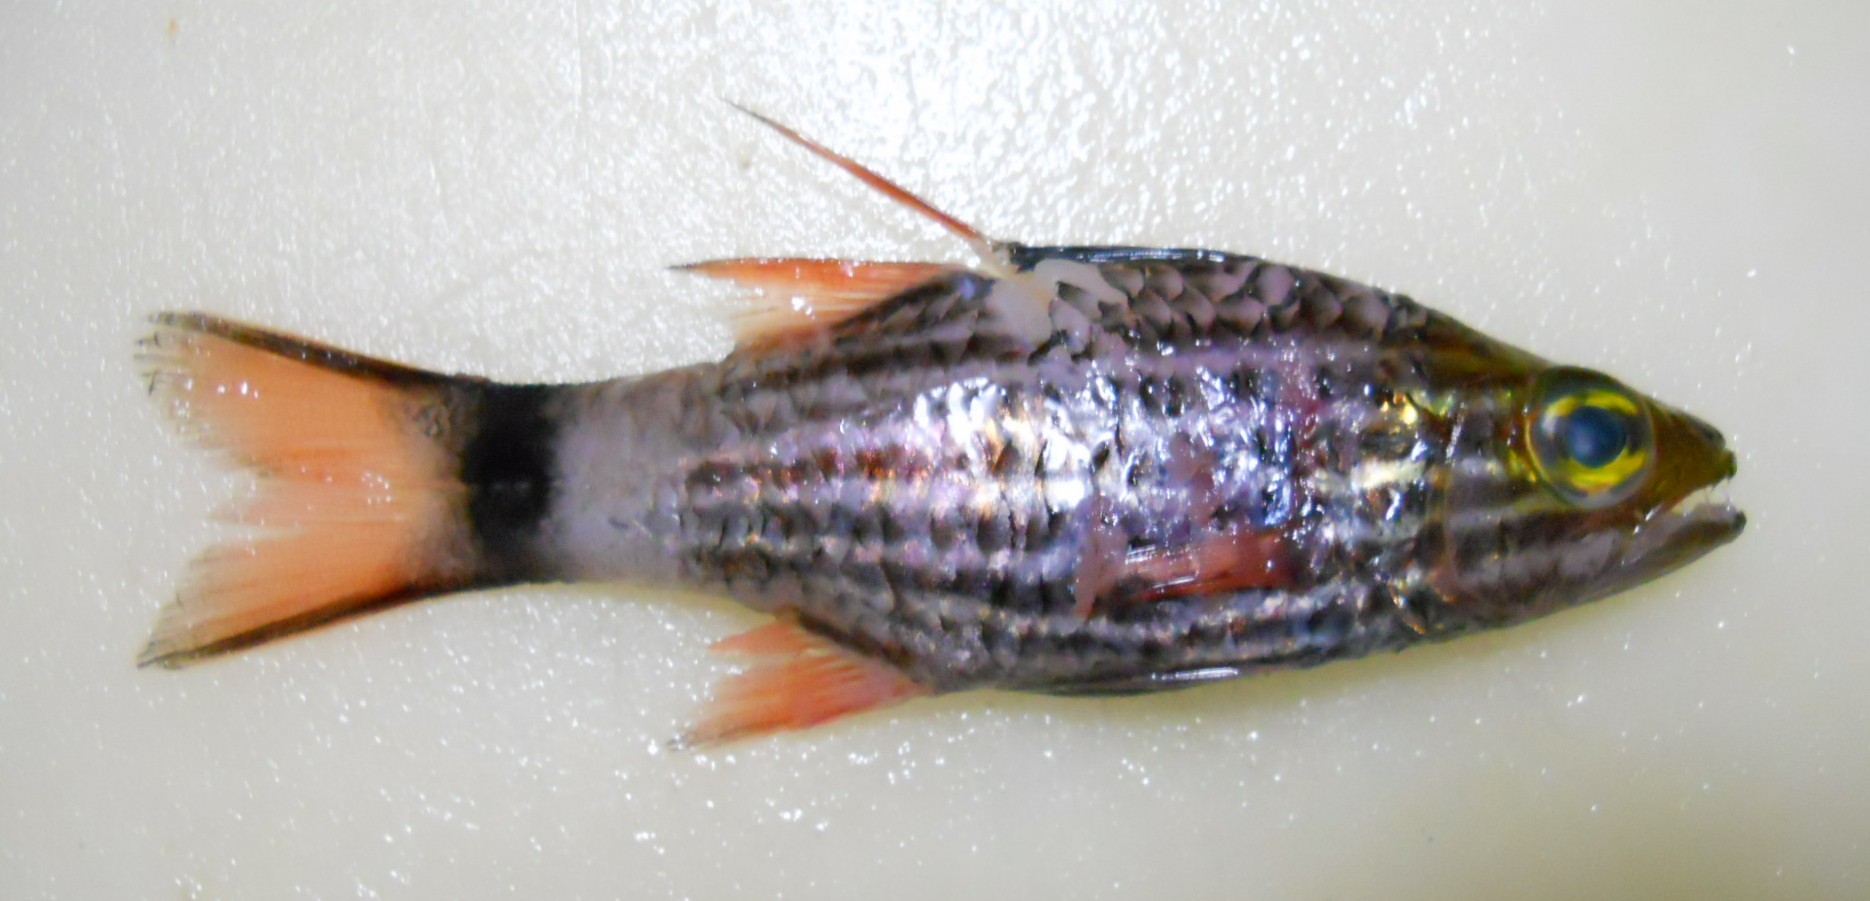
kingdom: Animalia
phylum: Chordata
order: Perciformes
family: Apogonidae
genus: Cheilodipterus
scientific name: Cheilodipterus arabicus
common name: Tiger cardinal
